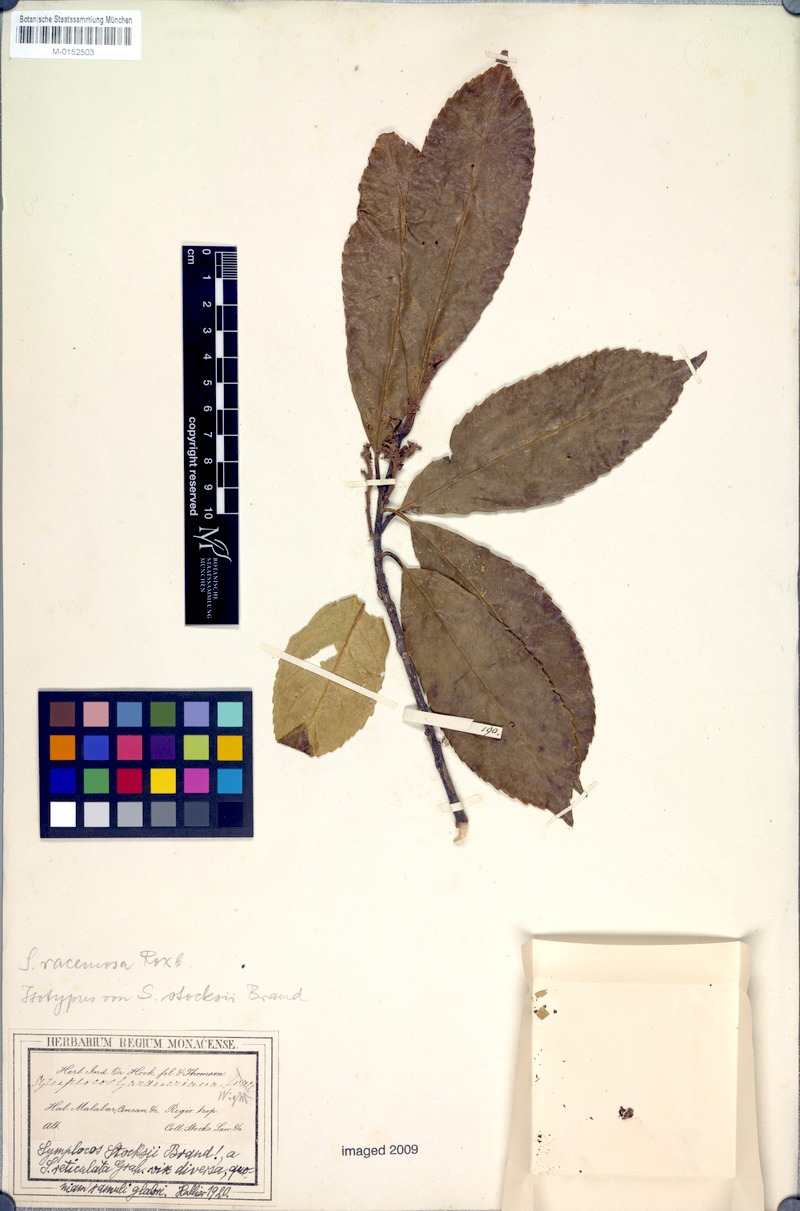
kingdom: Plantae
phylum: Tracheophyta
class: Magnoliopsida
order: Ericales
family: Symplocaceae
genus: Symplocos
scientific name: Symplocos racemosa
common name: Lodhtree
